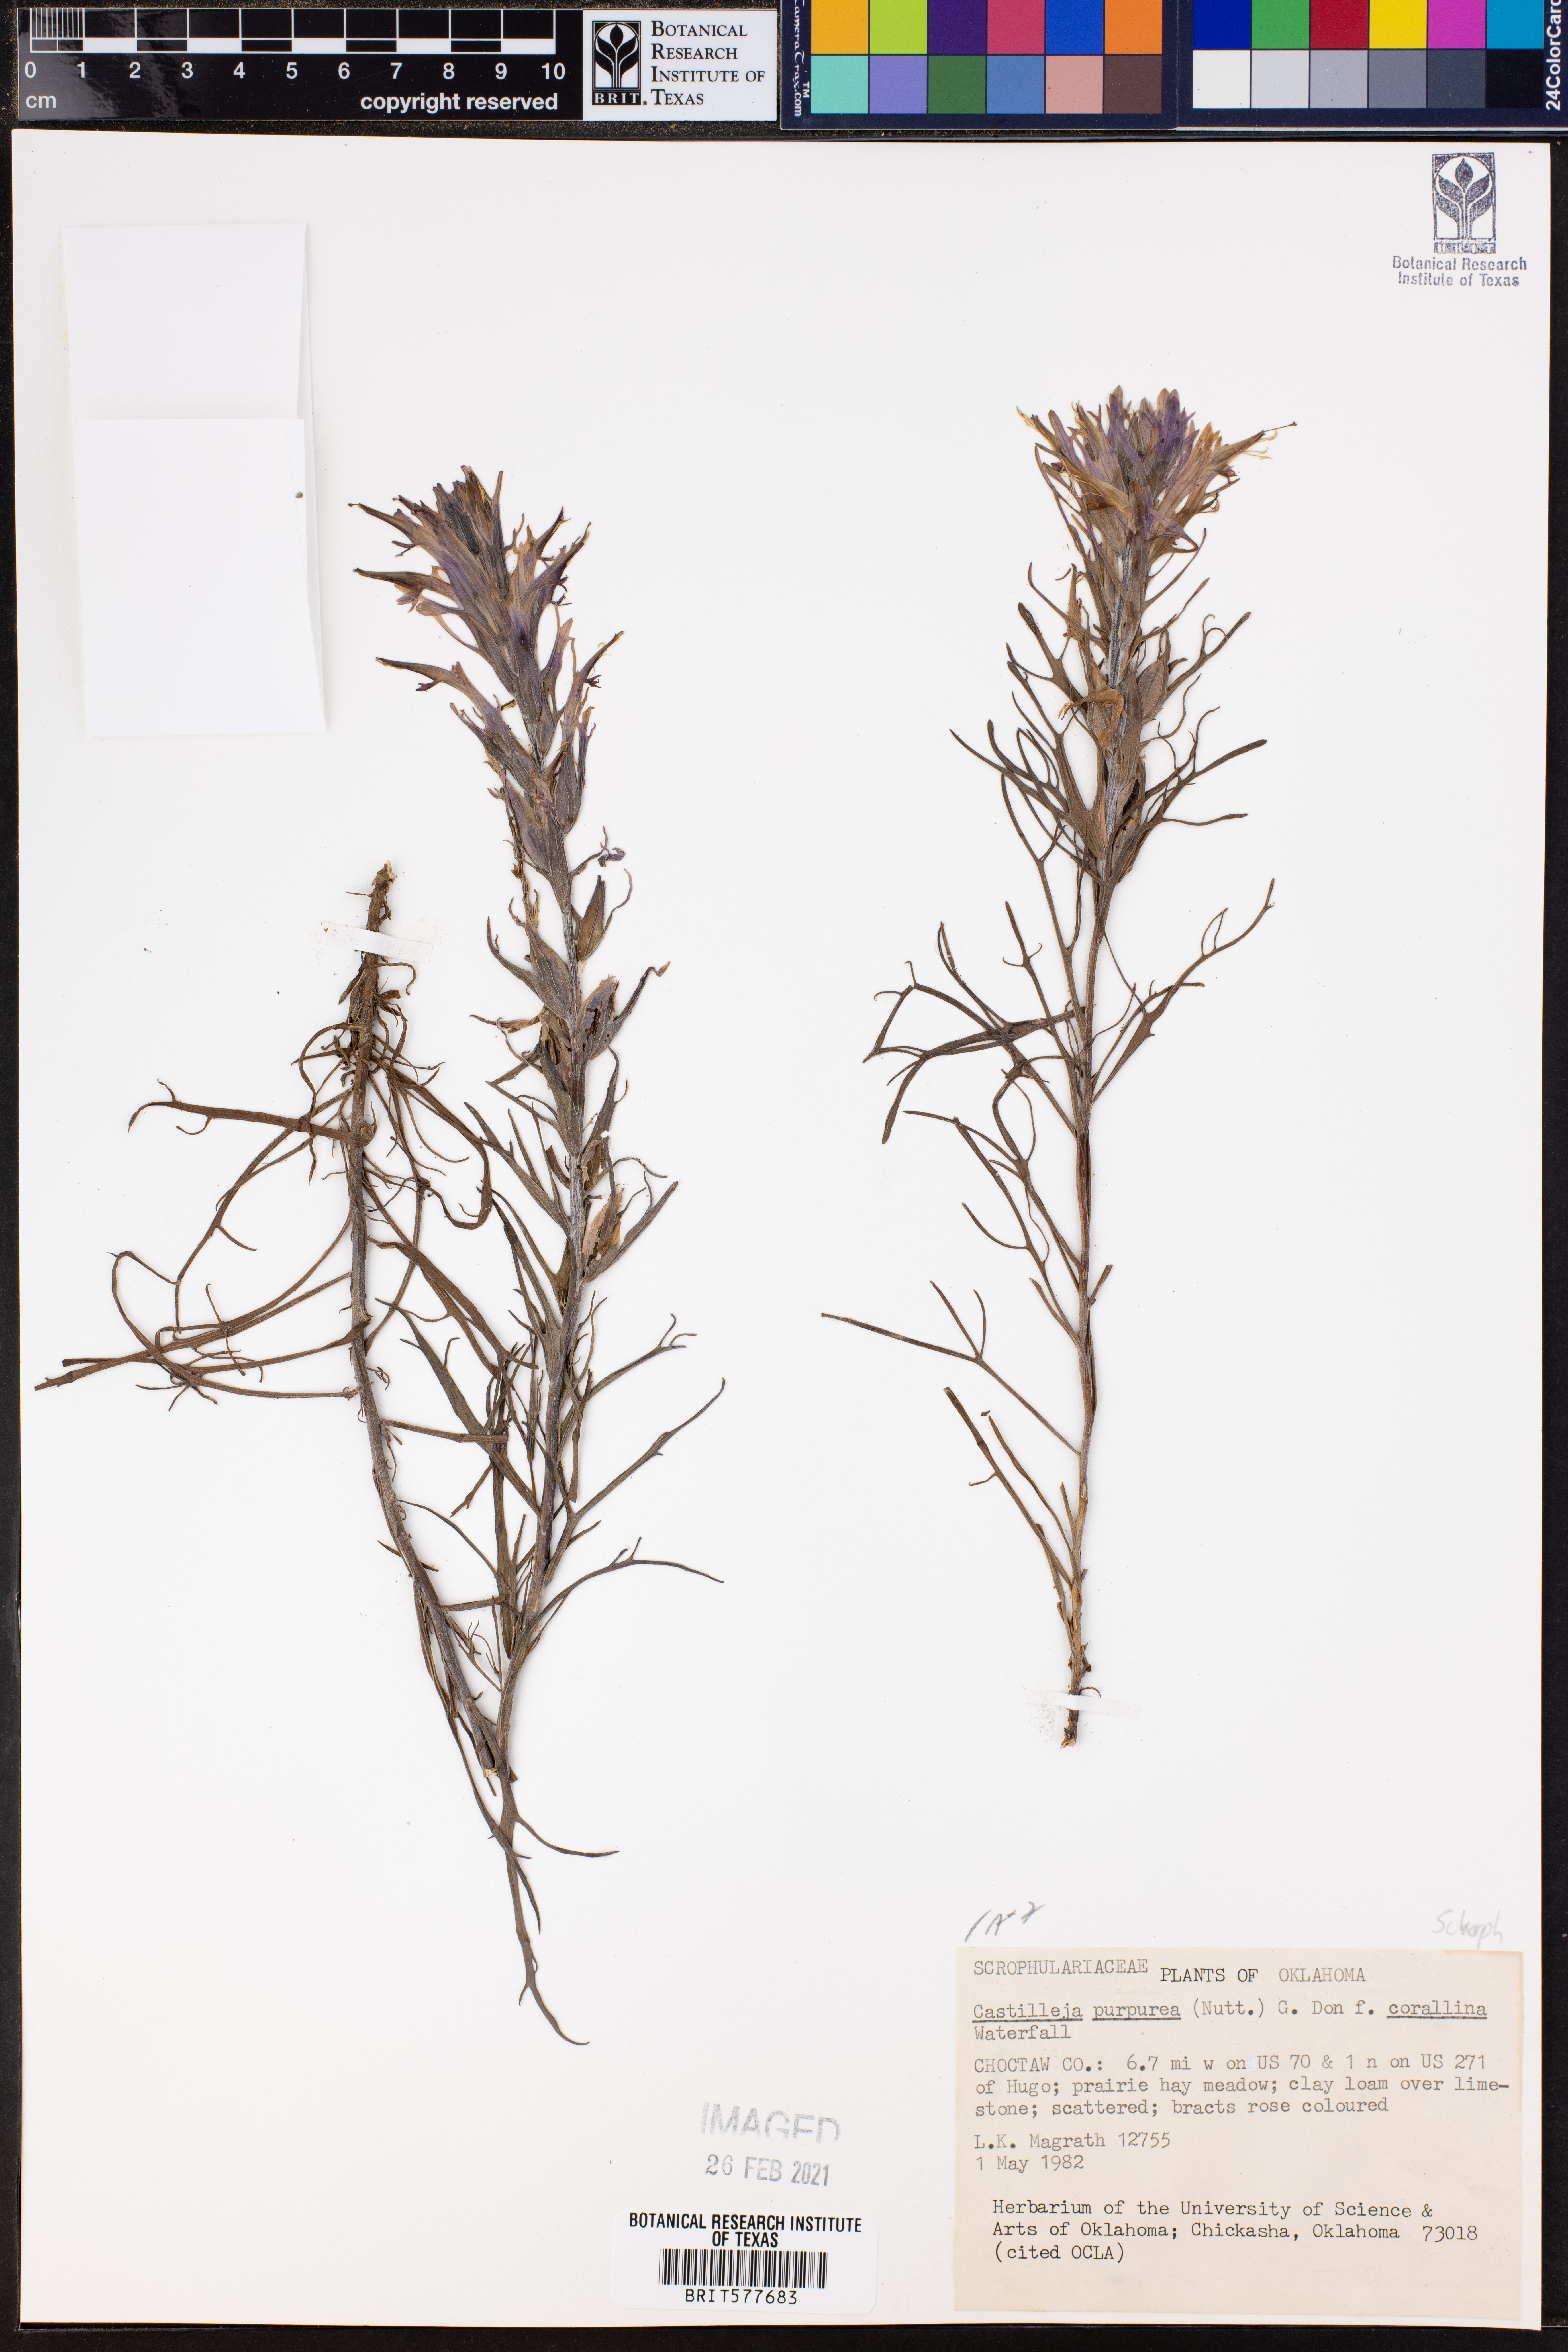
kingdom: Plantae
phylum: Tracheophyta
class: Magnoliopsida
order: Lamiales
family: Orobanchaceae
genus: Castilleja
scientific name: Castilleja purpurea
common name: Plains paintbrush
